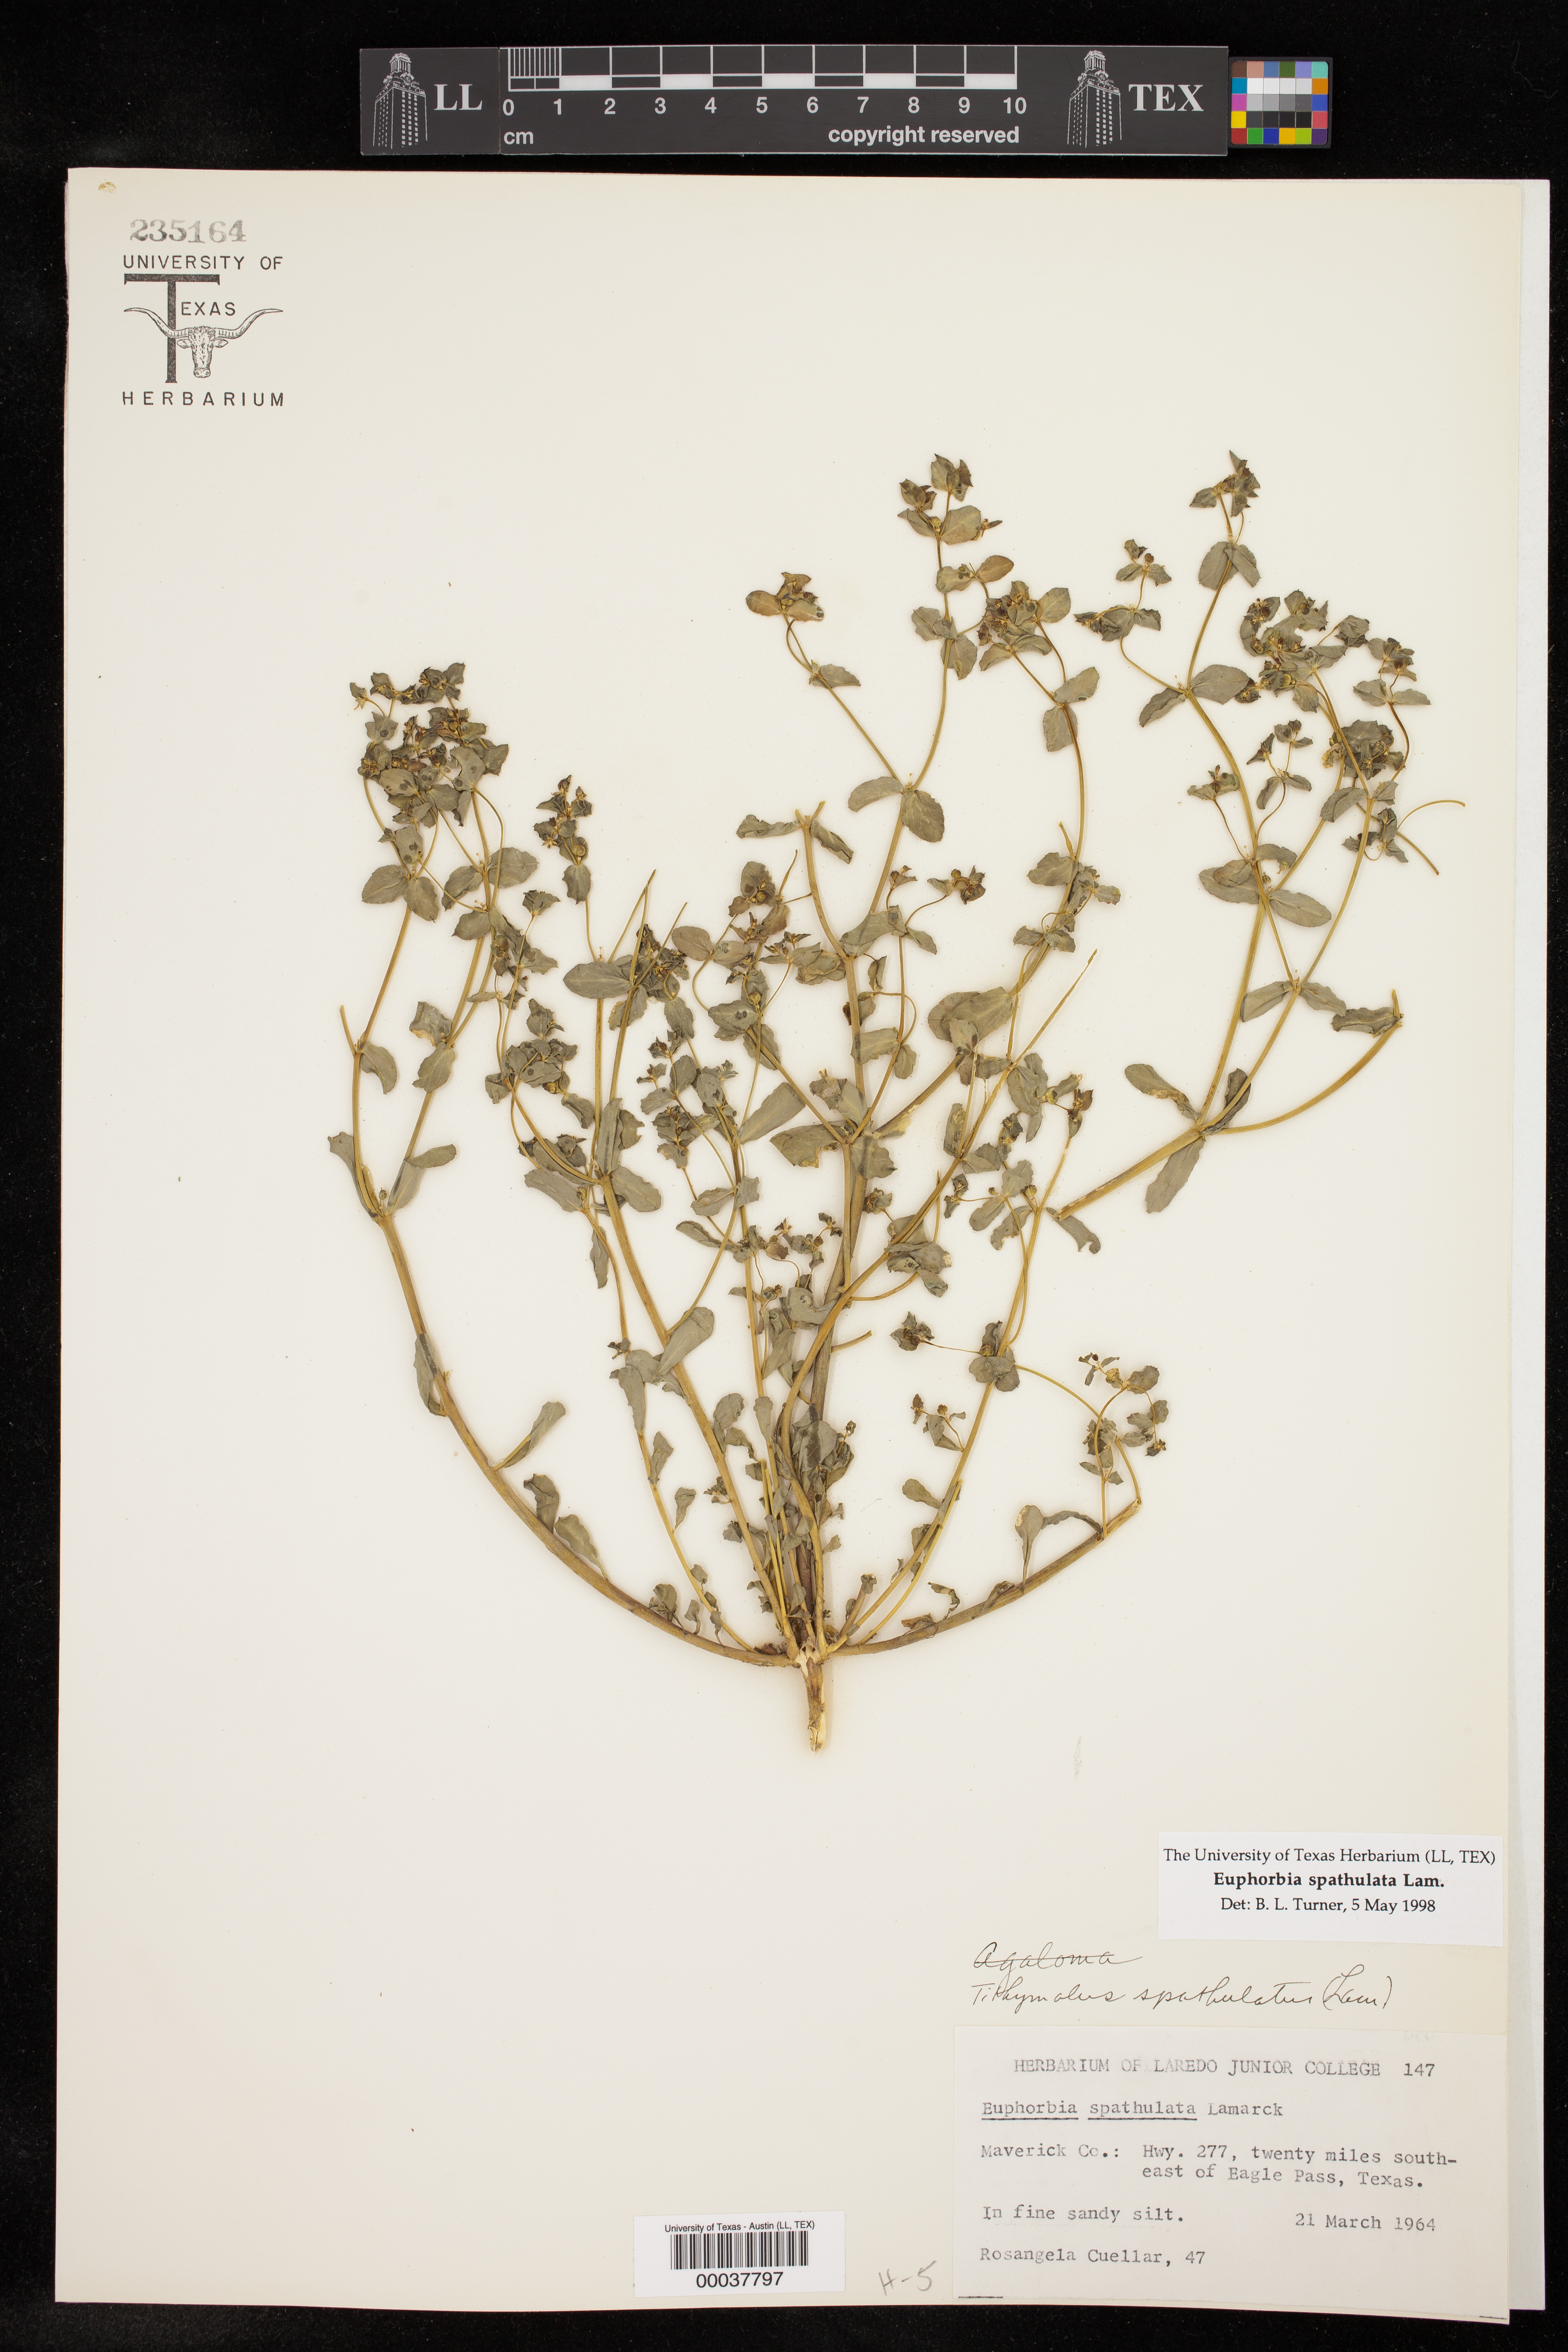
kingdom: Plantae
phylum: Tracheophyta
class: Magnoliopsida
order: Malpighiales
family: Euphorbiaceae
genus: Euphorbia
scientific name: Euphorbia spathulata
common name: Blunt spurge
